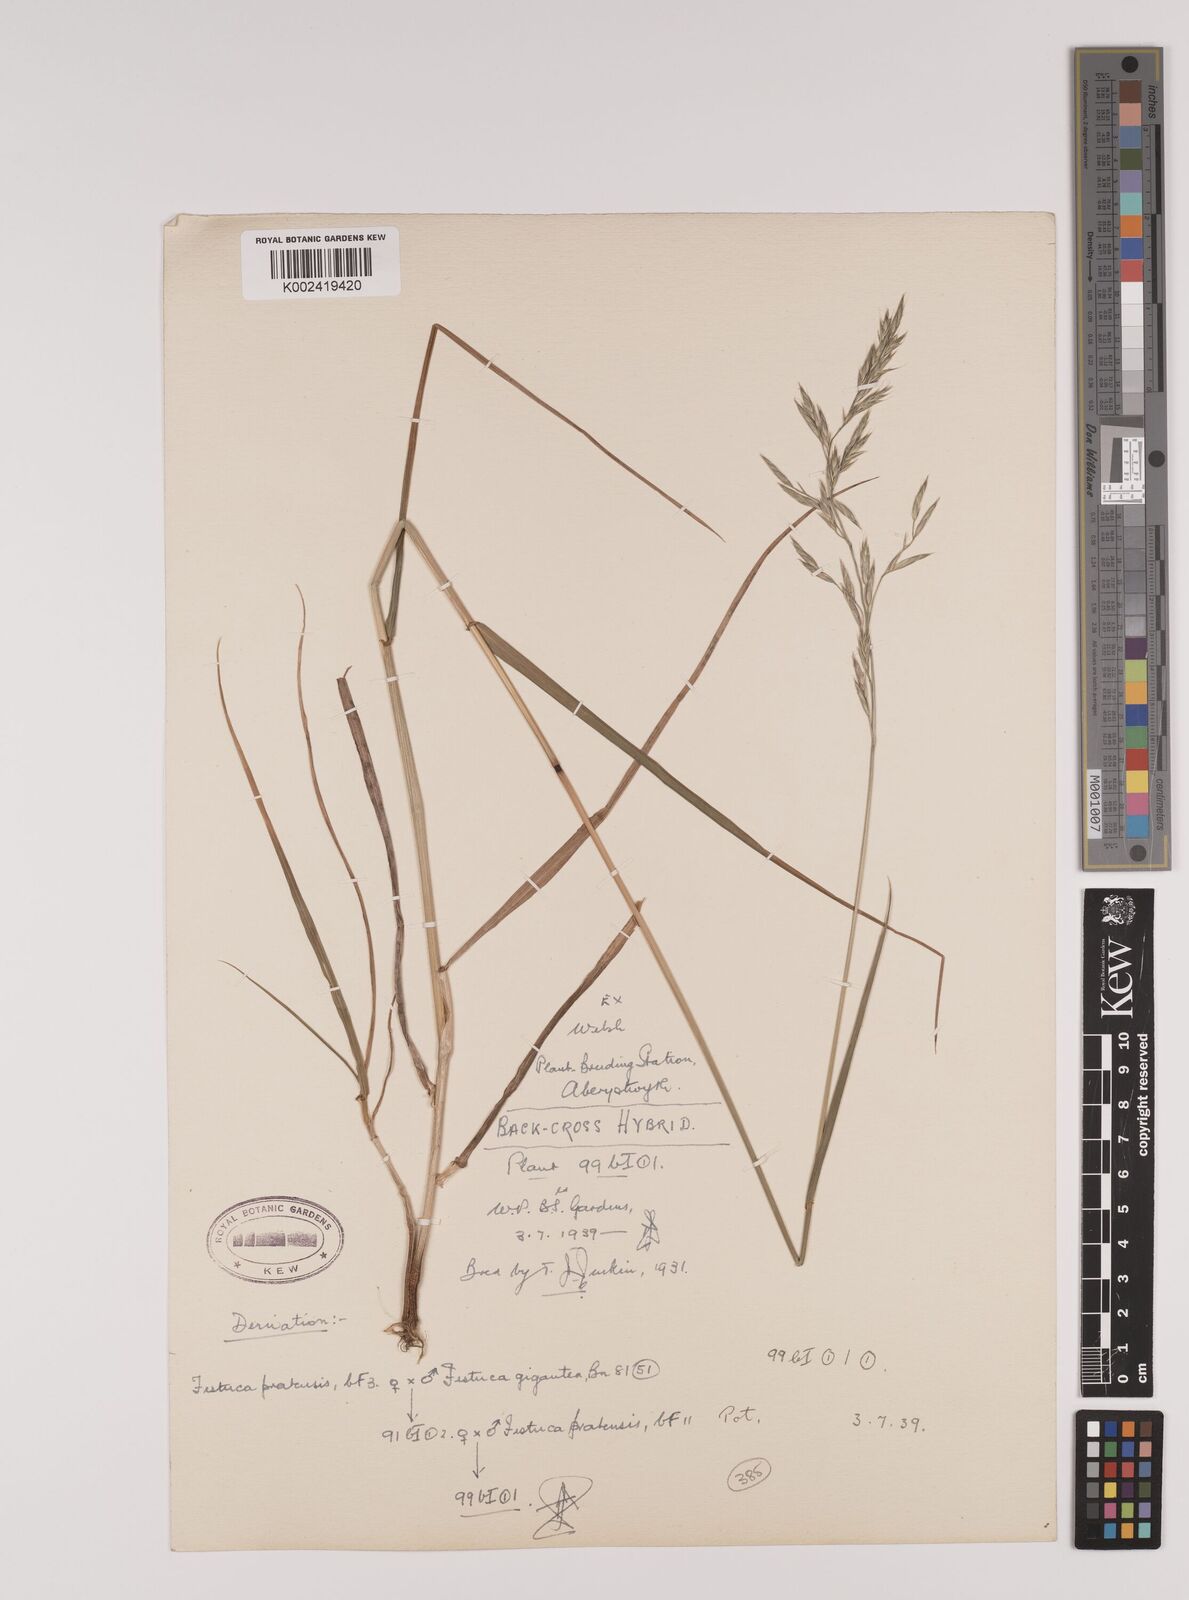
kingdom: Plantae
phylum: Tracheophyta
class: Liliopsida
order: Poales
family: Poaceae
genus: Lolium
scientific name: Lolium giganteum
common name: Giant fescue
